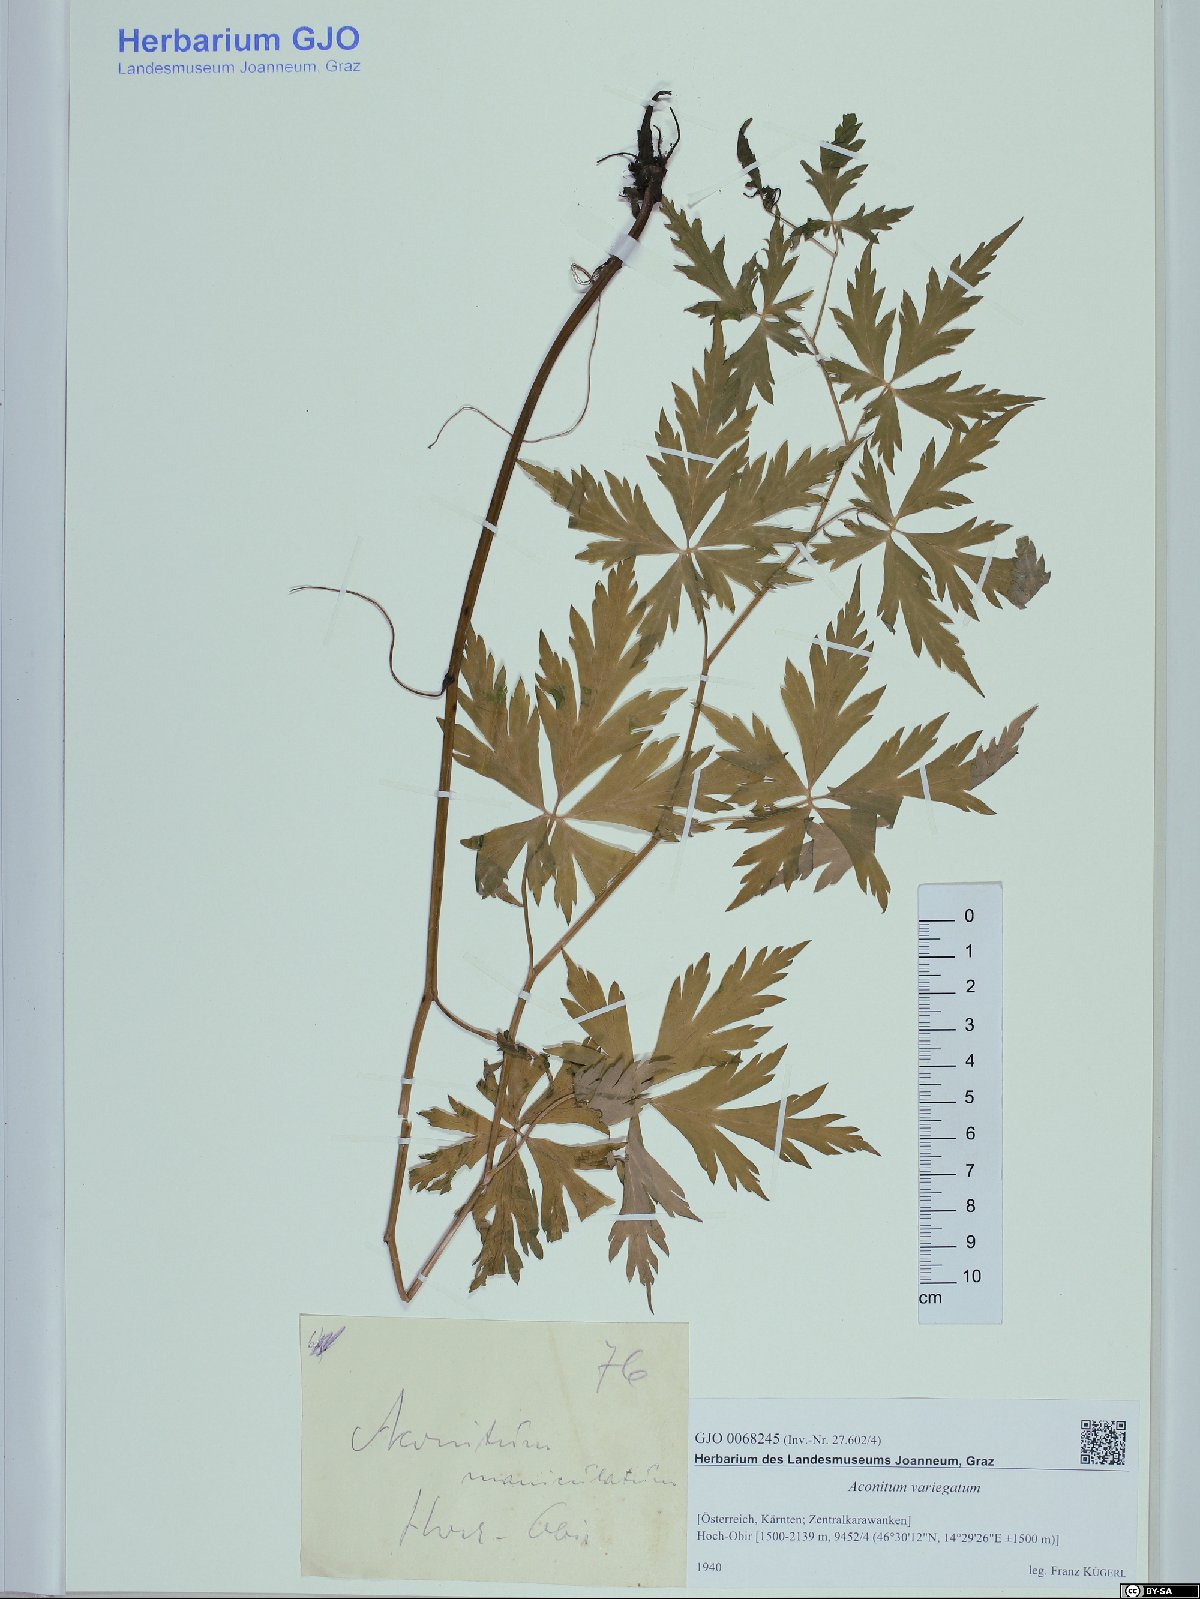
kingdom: Plantae
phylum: Tracheophyta
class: Magnoliopsida
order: Ranunculales
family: Ranunculaceae
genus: Aconitum
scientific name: Aconitum variegatum
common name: Manchurian monkshood
